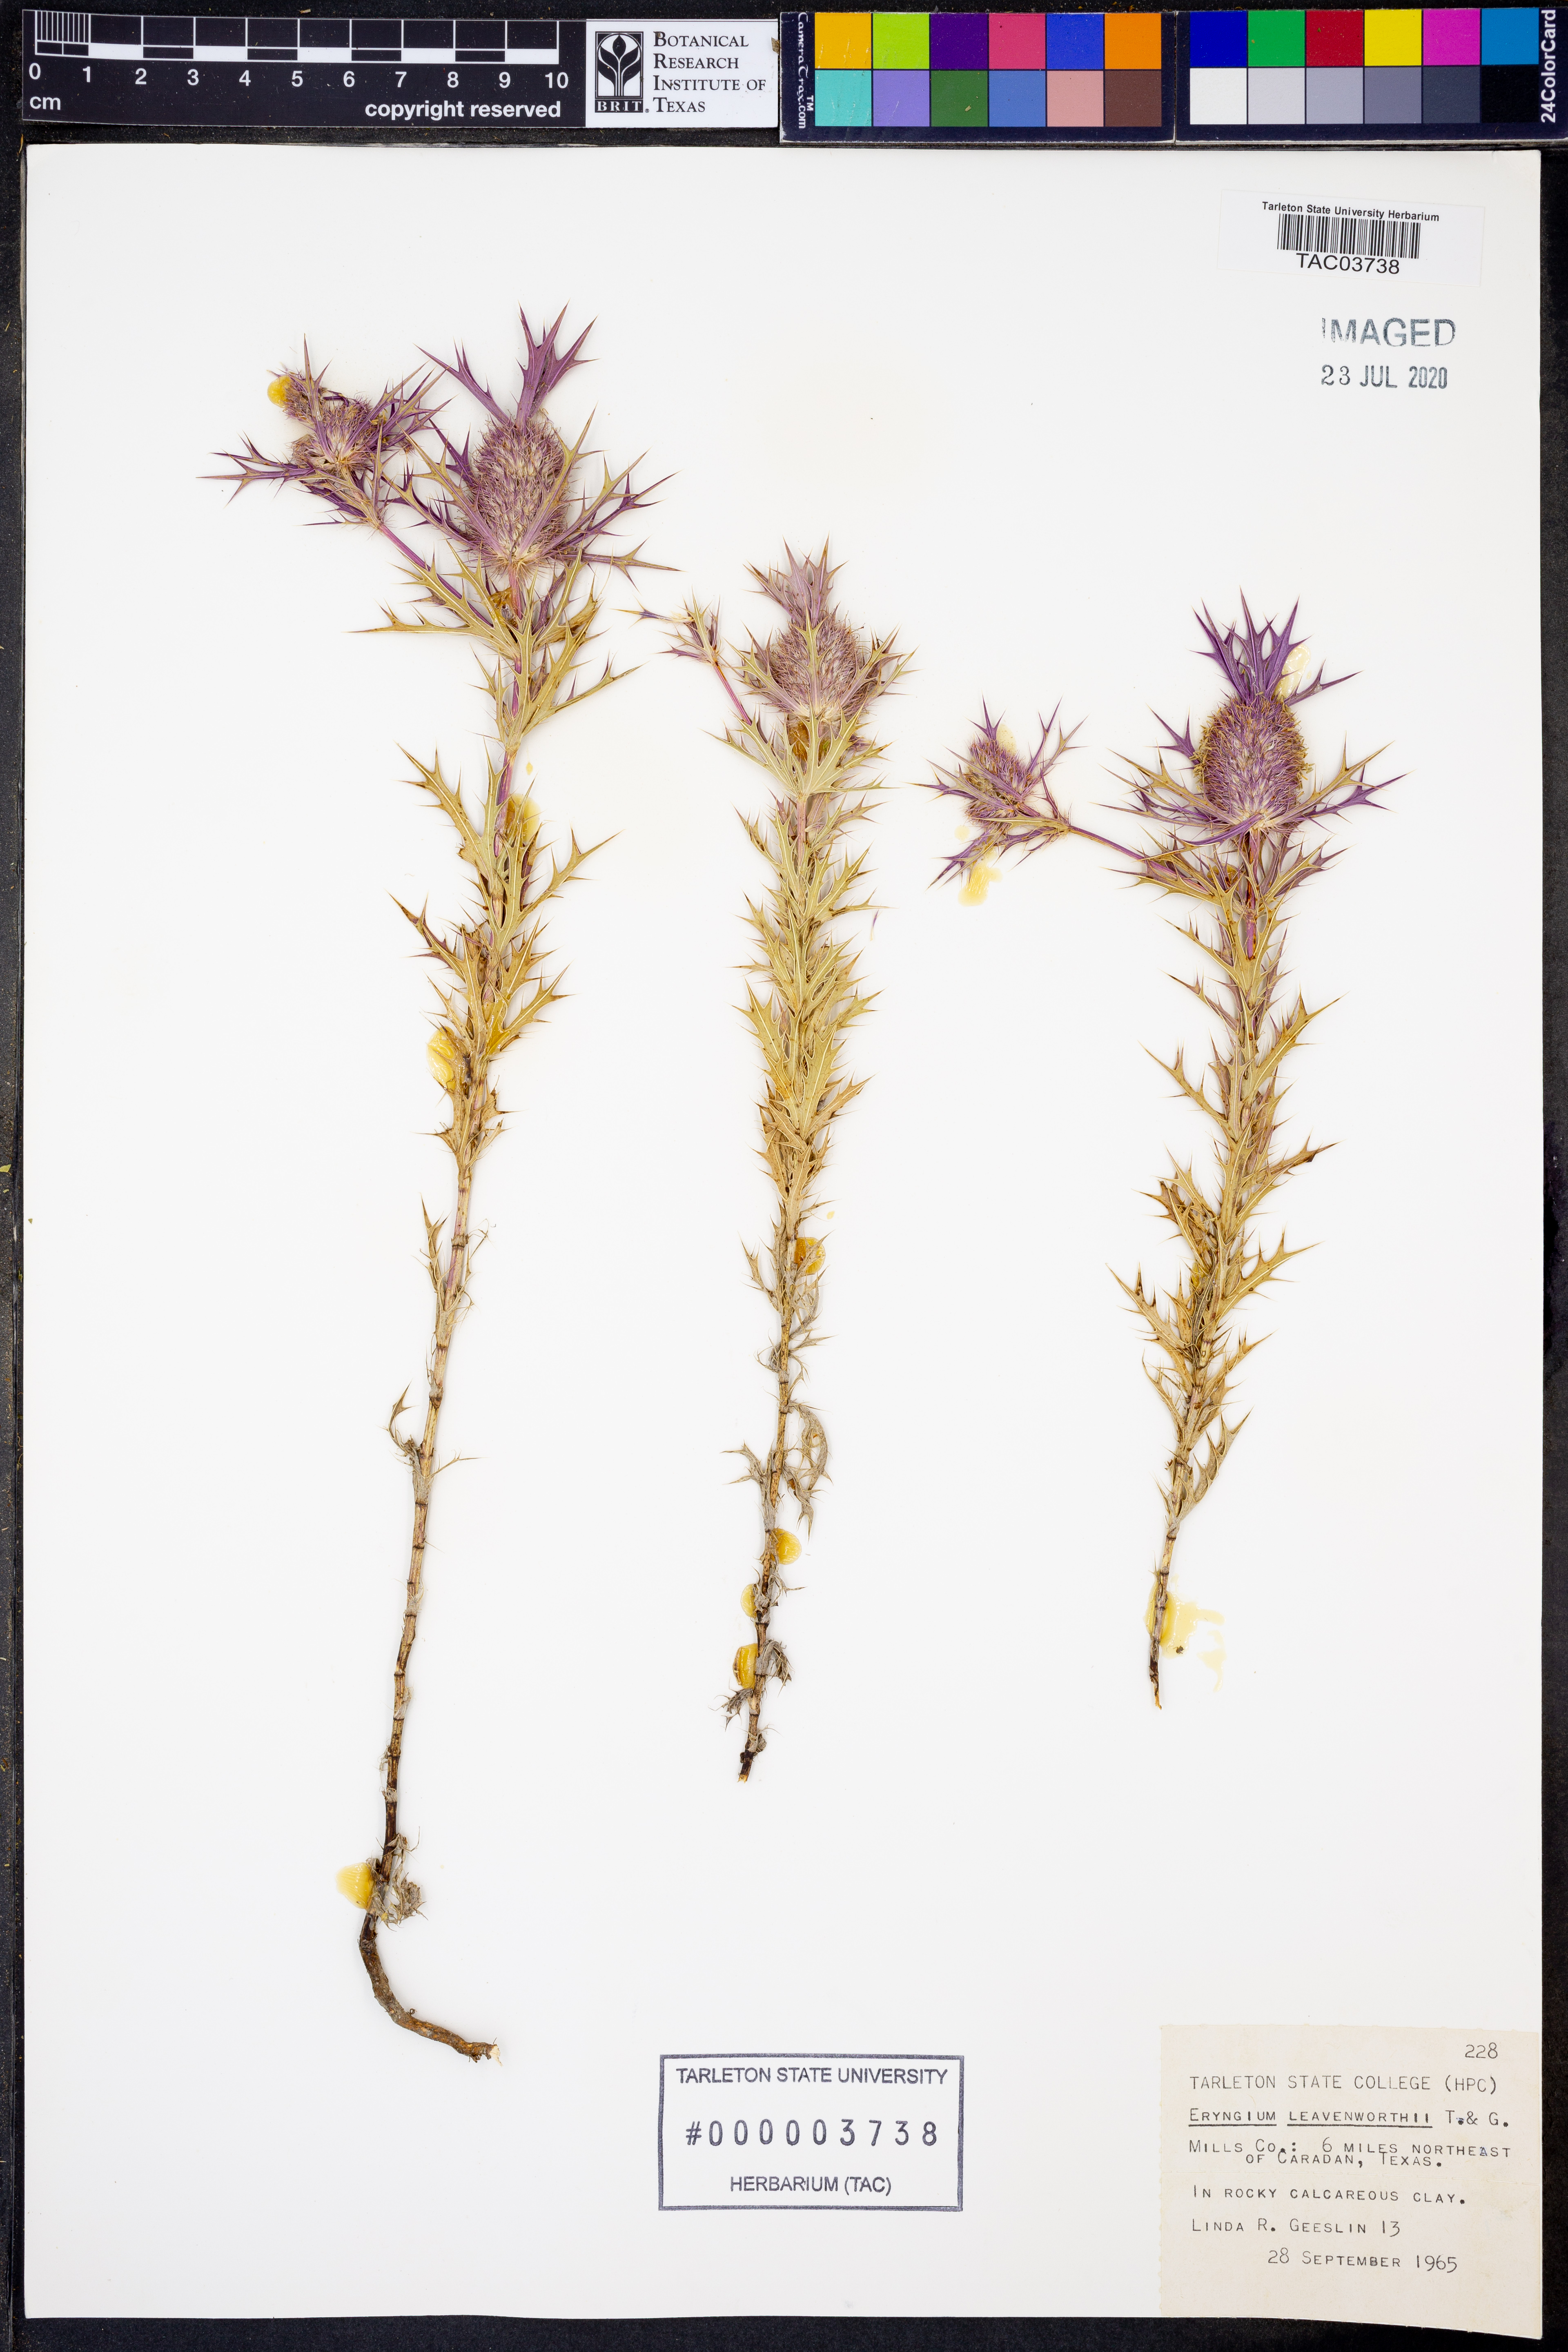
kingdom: Plantae
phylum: Tracheophyta
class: Magnoliopsida
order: Apiales
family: Apiaceae
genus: Eryngium
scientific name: Eryngium leavenworthii
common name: Leavenworth's eryngo
